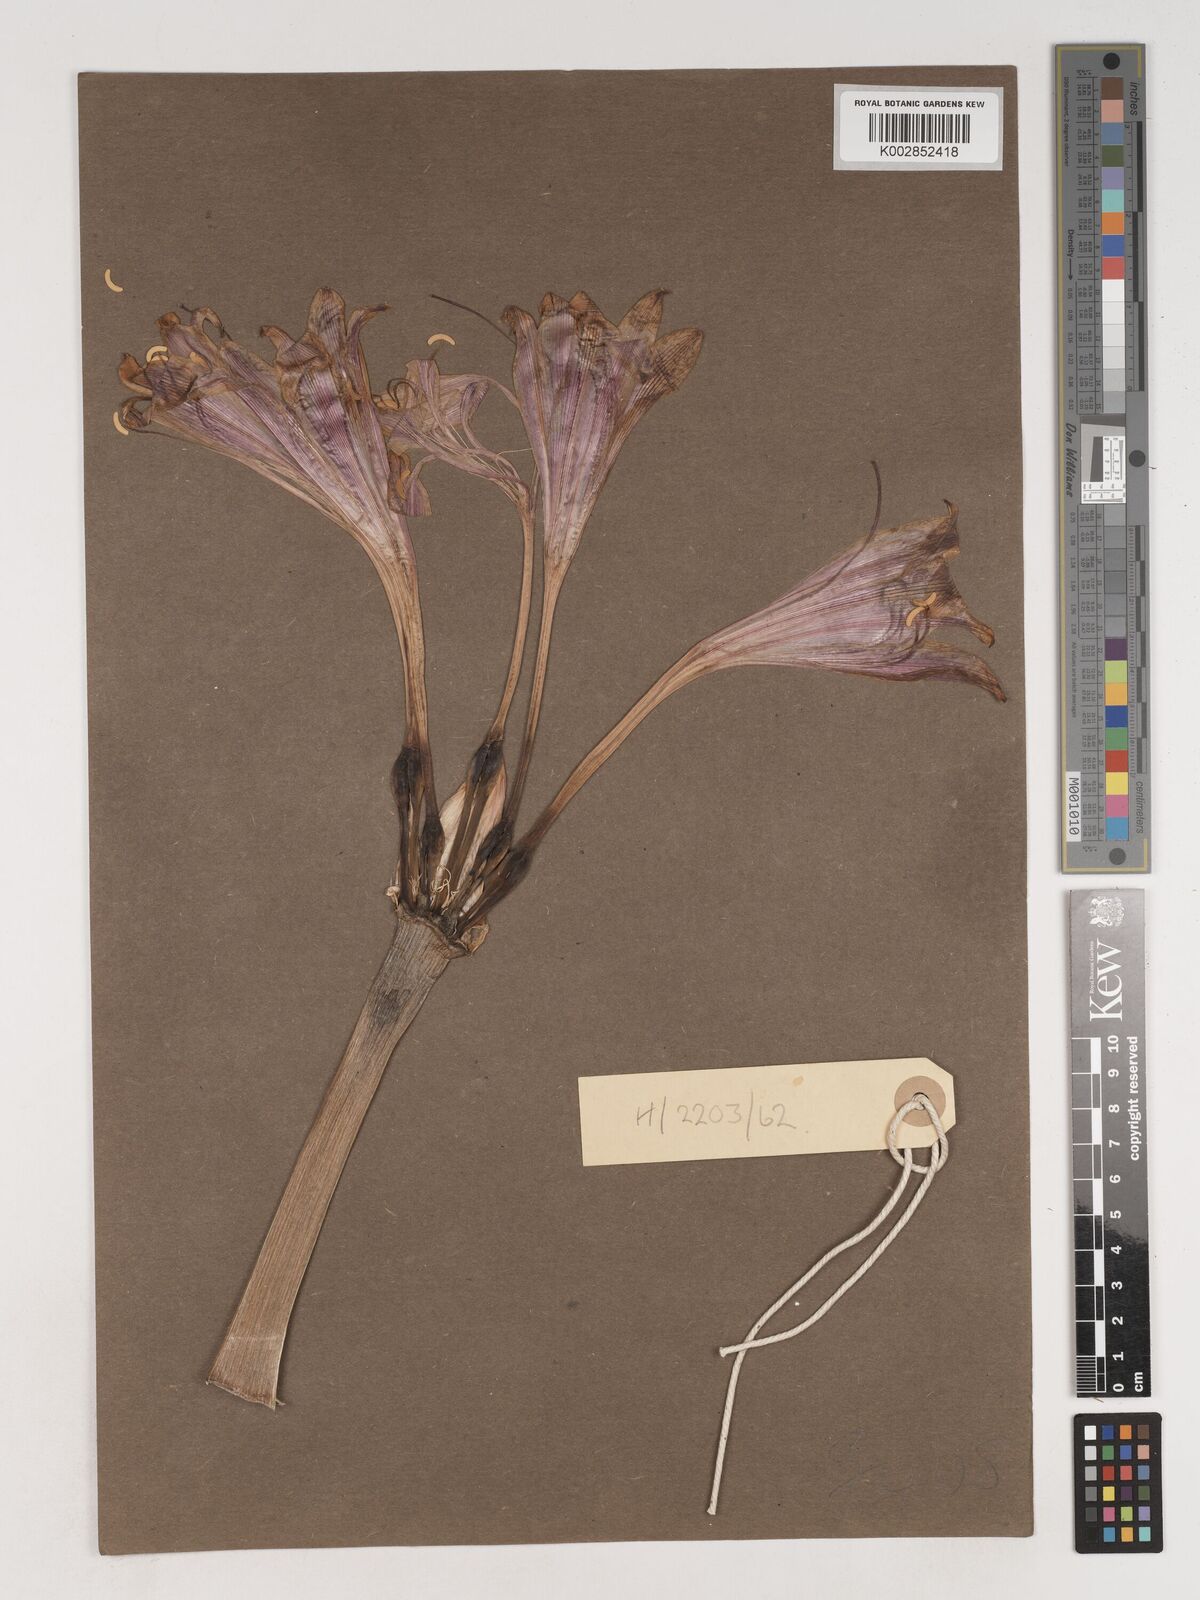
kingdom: Plantae
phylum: Tracheophyta
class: Liliopsida
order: Asparagales
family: Amaryllidaceae
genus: Crinum
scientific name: Crinum graminicola
